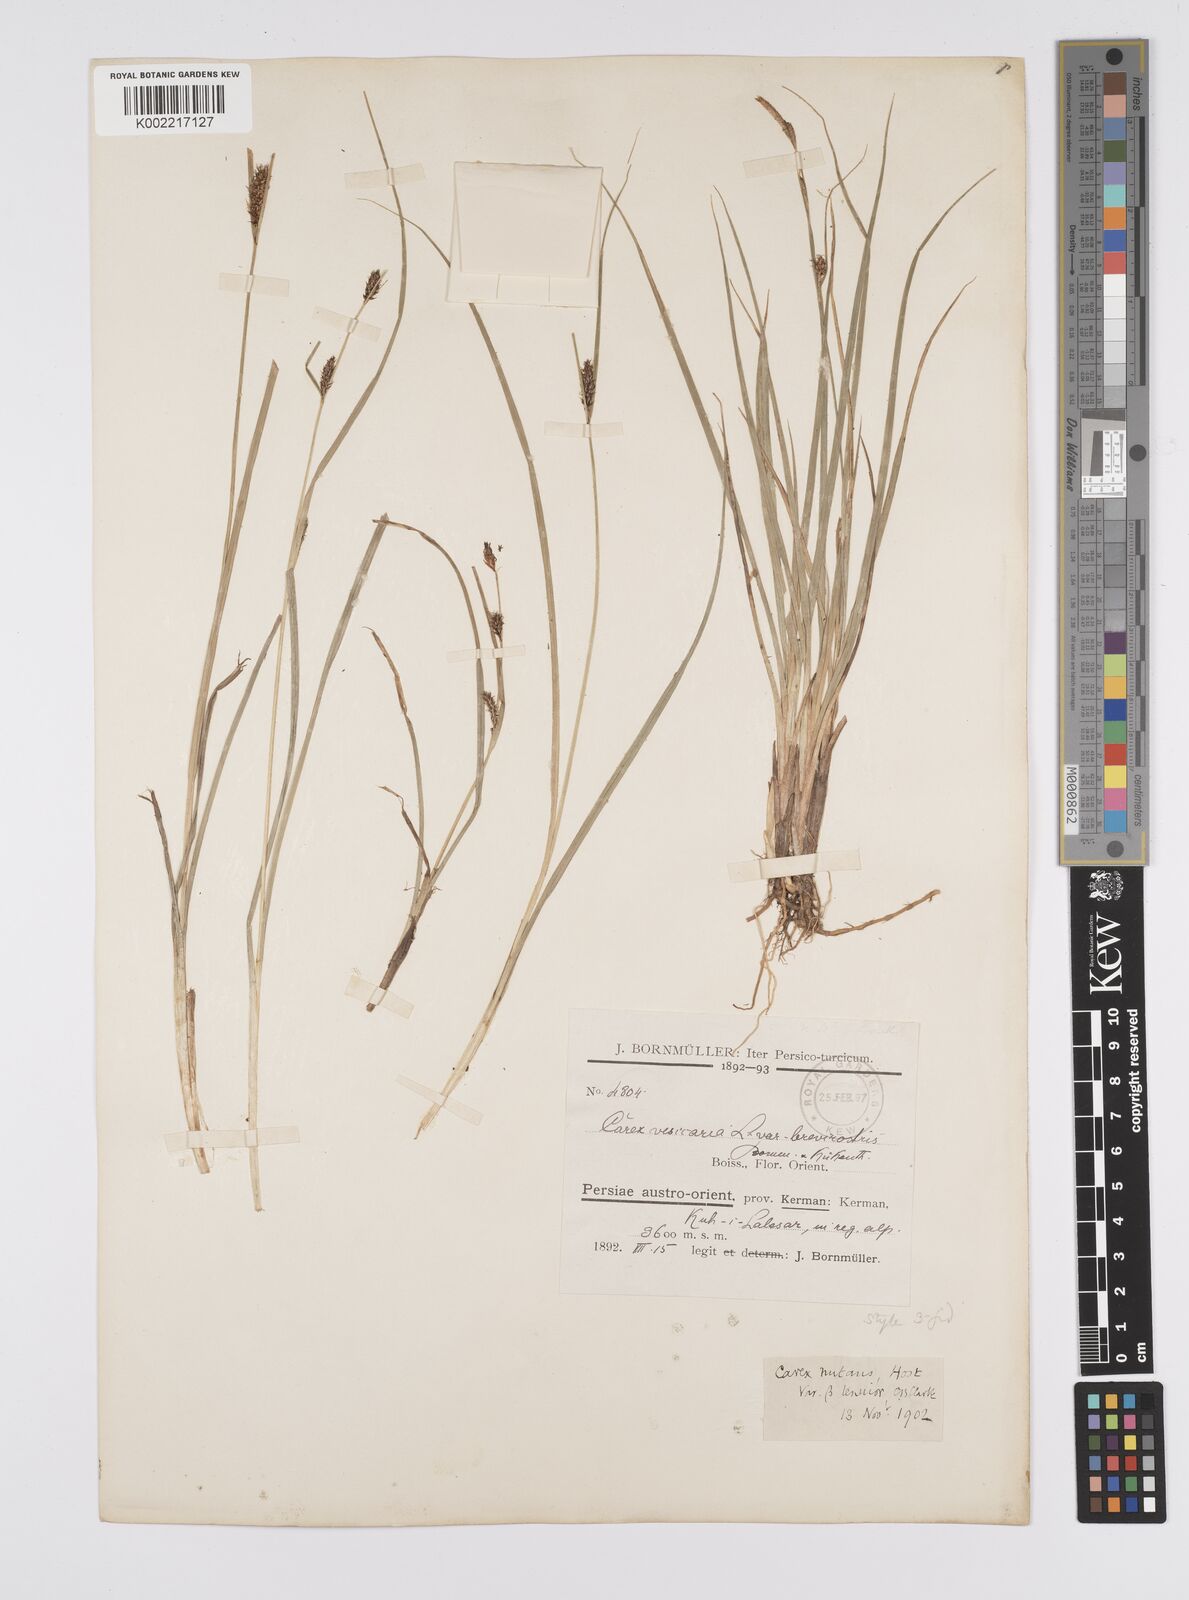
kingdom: Plantae
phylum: Tracheophyta
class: Liliopsida
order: Poales
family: Cyperaceae
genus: Carex
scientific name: Carex melanostachya
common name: Black-spiked sedge
